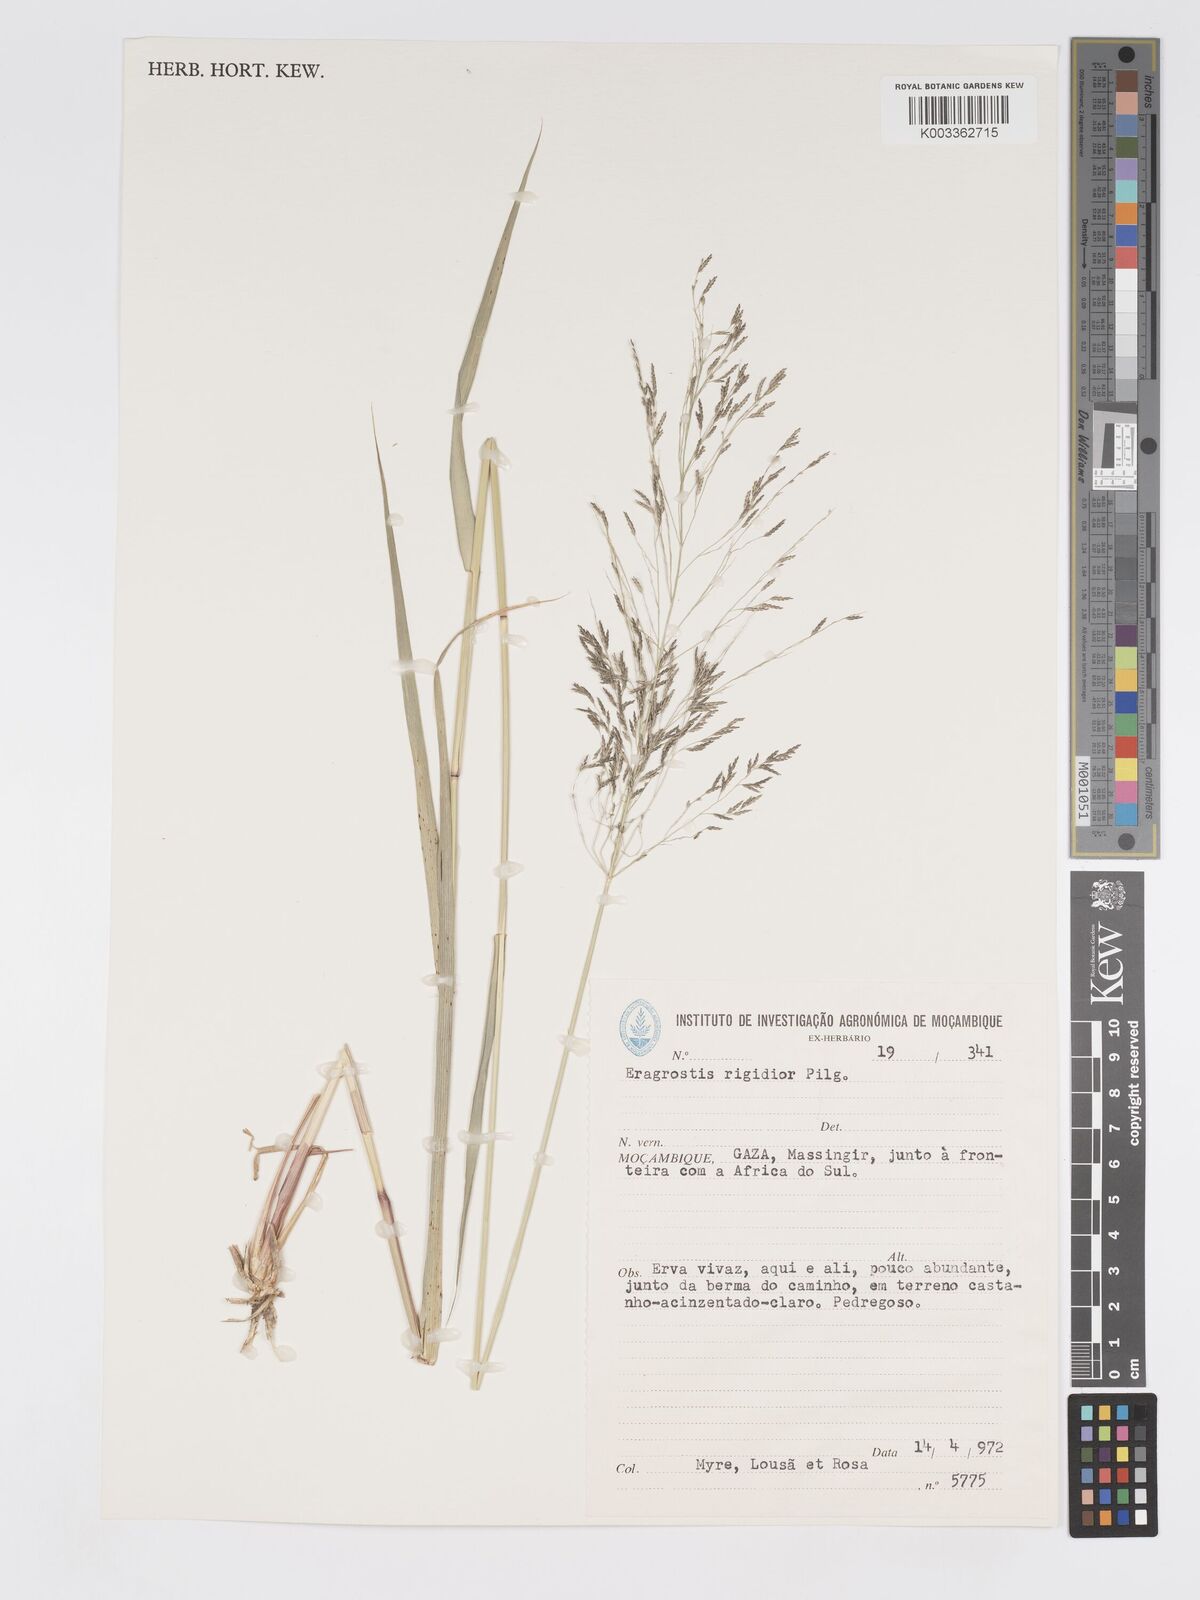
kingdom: Plantae
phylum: Tracheophyta
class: Liliopsida
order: Poales
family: Poaceae
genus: Eragrostis
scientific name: Eragrostis cylindriflora
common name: Cylinderflower lovegrass
